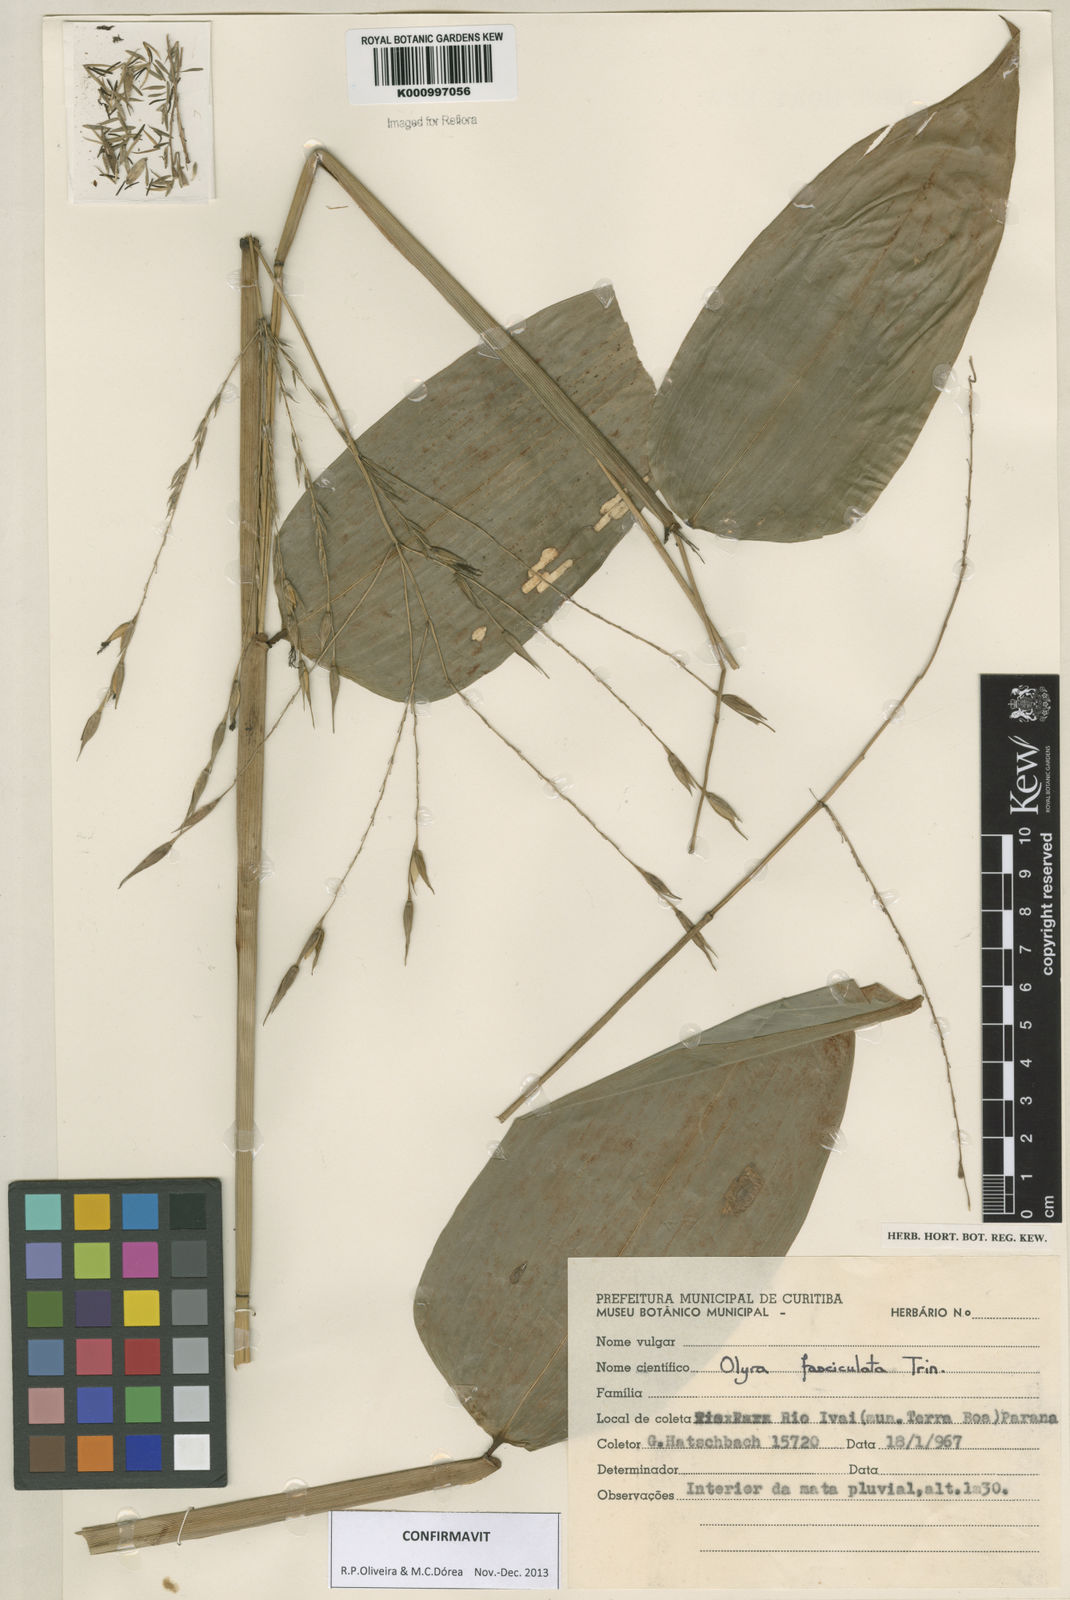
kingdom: Plantae
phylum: Tracheophyta
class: Liliopsida
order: Poales
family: Poaceae
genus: Olyra
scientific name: Olyra fasciculata
